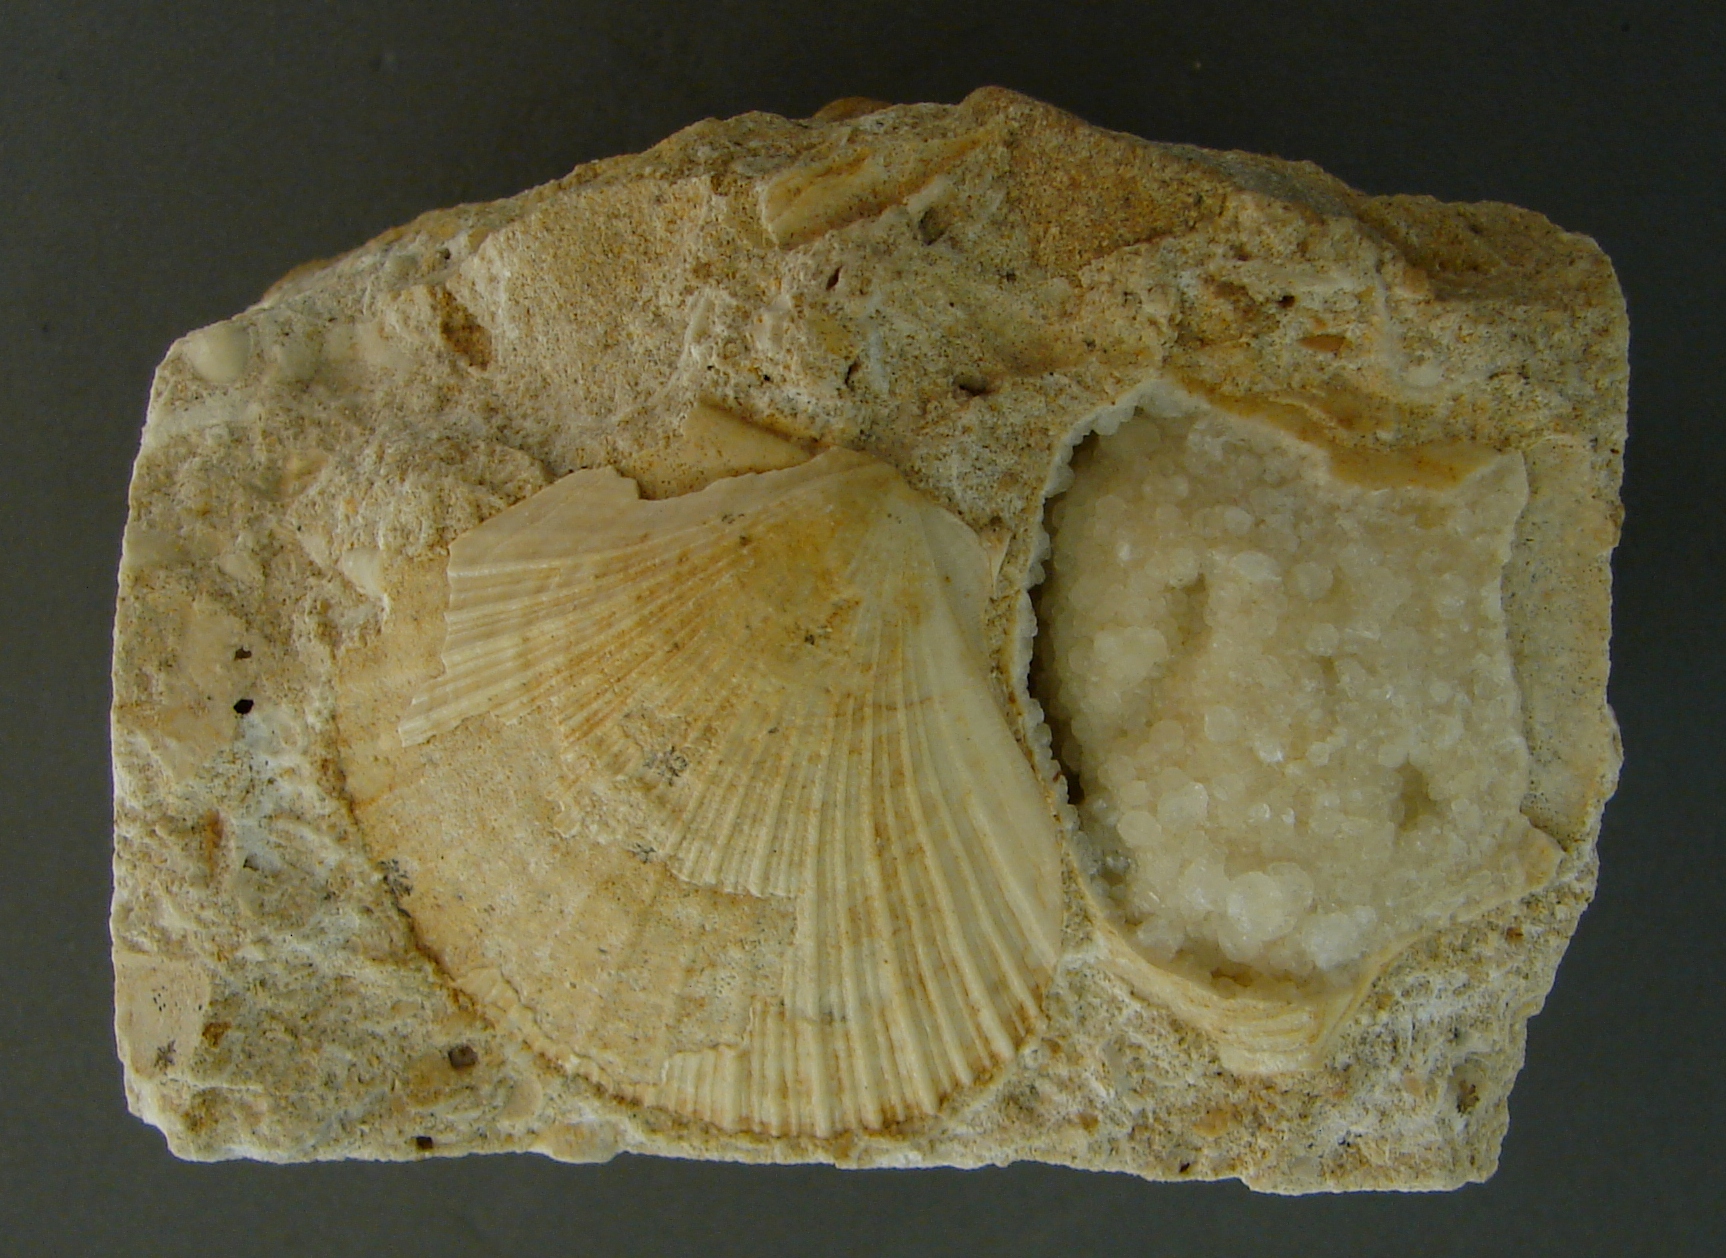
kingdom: Animalia
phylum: Mollusca
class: Bivalvia
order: Pectinida
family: Pectinidae
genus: Lyriochlamys
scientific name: Lyriochlamys
